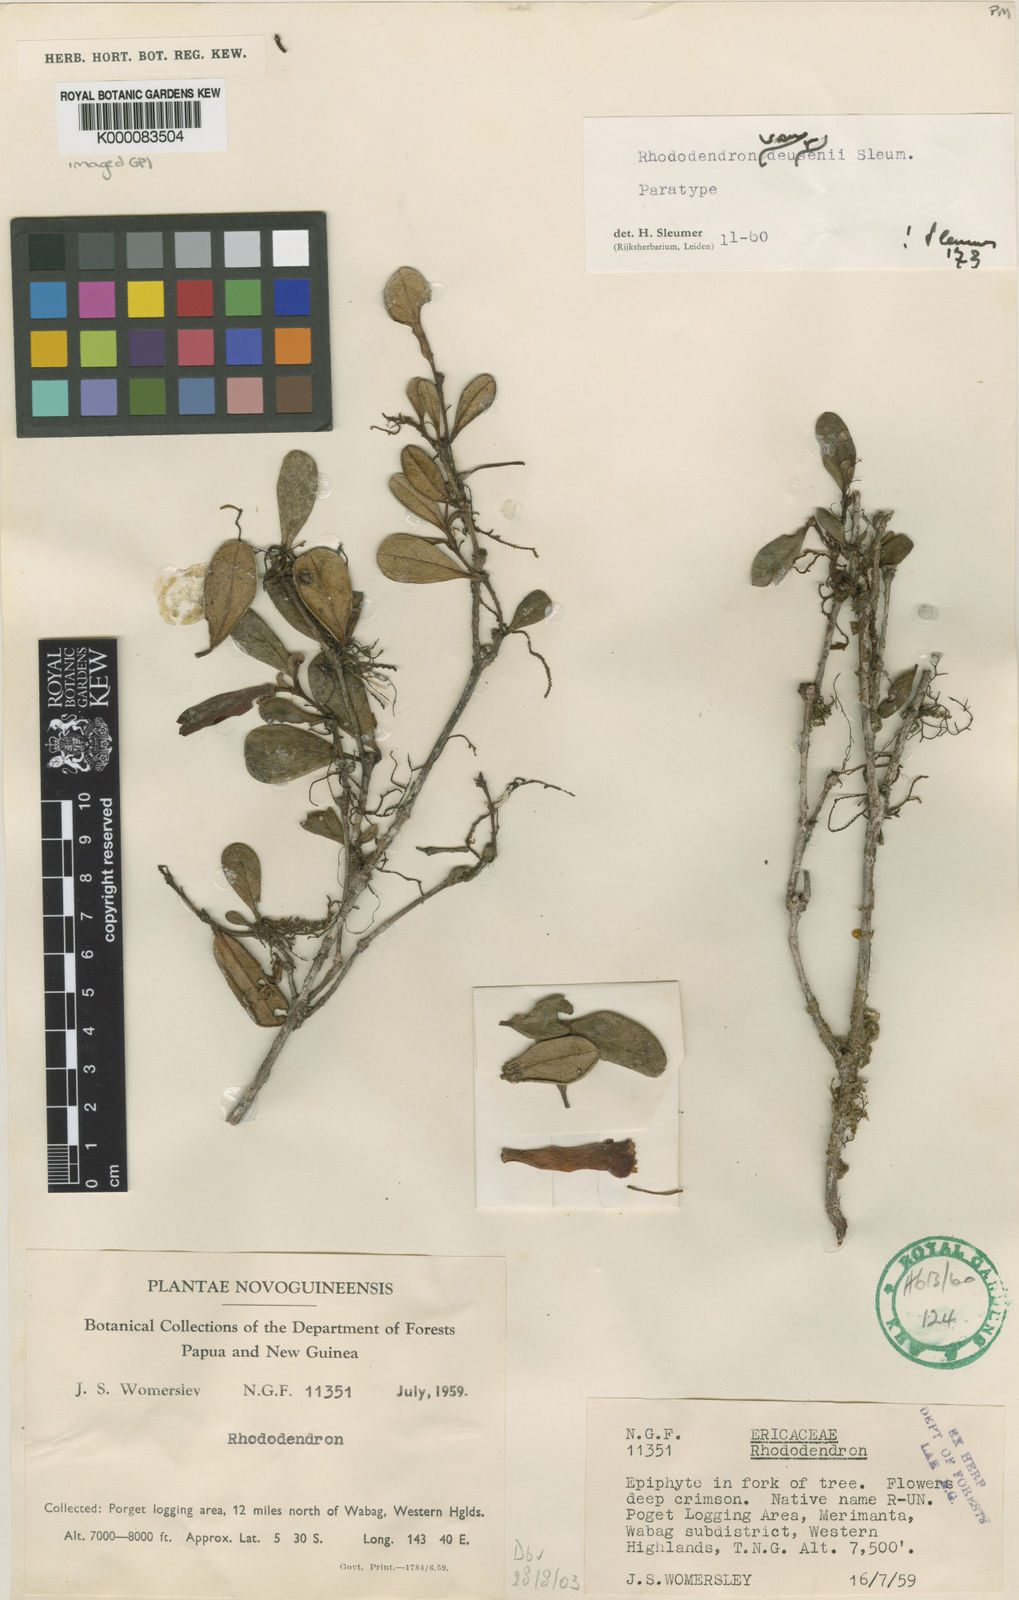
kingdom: Plantae
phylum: Tracheophyta
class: Magnoliopsida
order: Ericales
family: Ericaceae
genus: Rhododendron
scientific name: Rhododendron vitis-idaea
